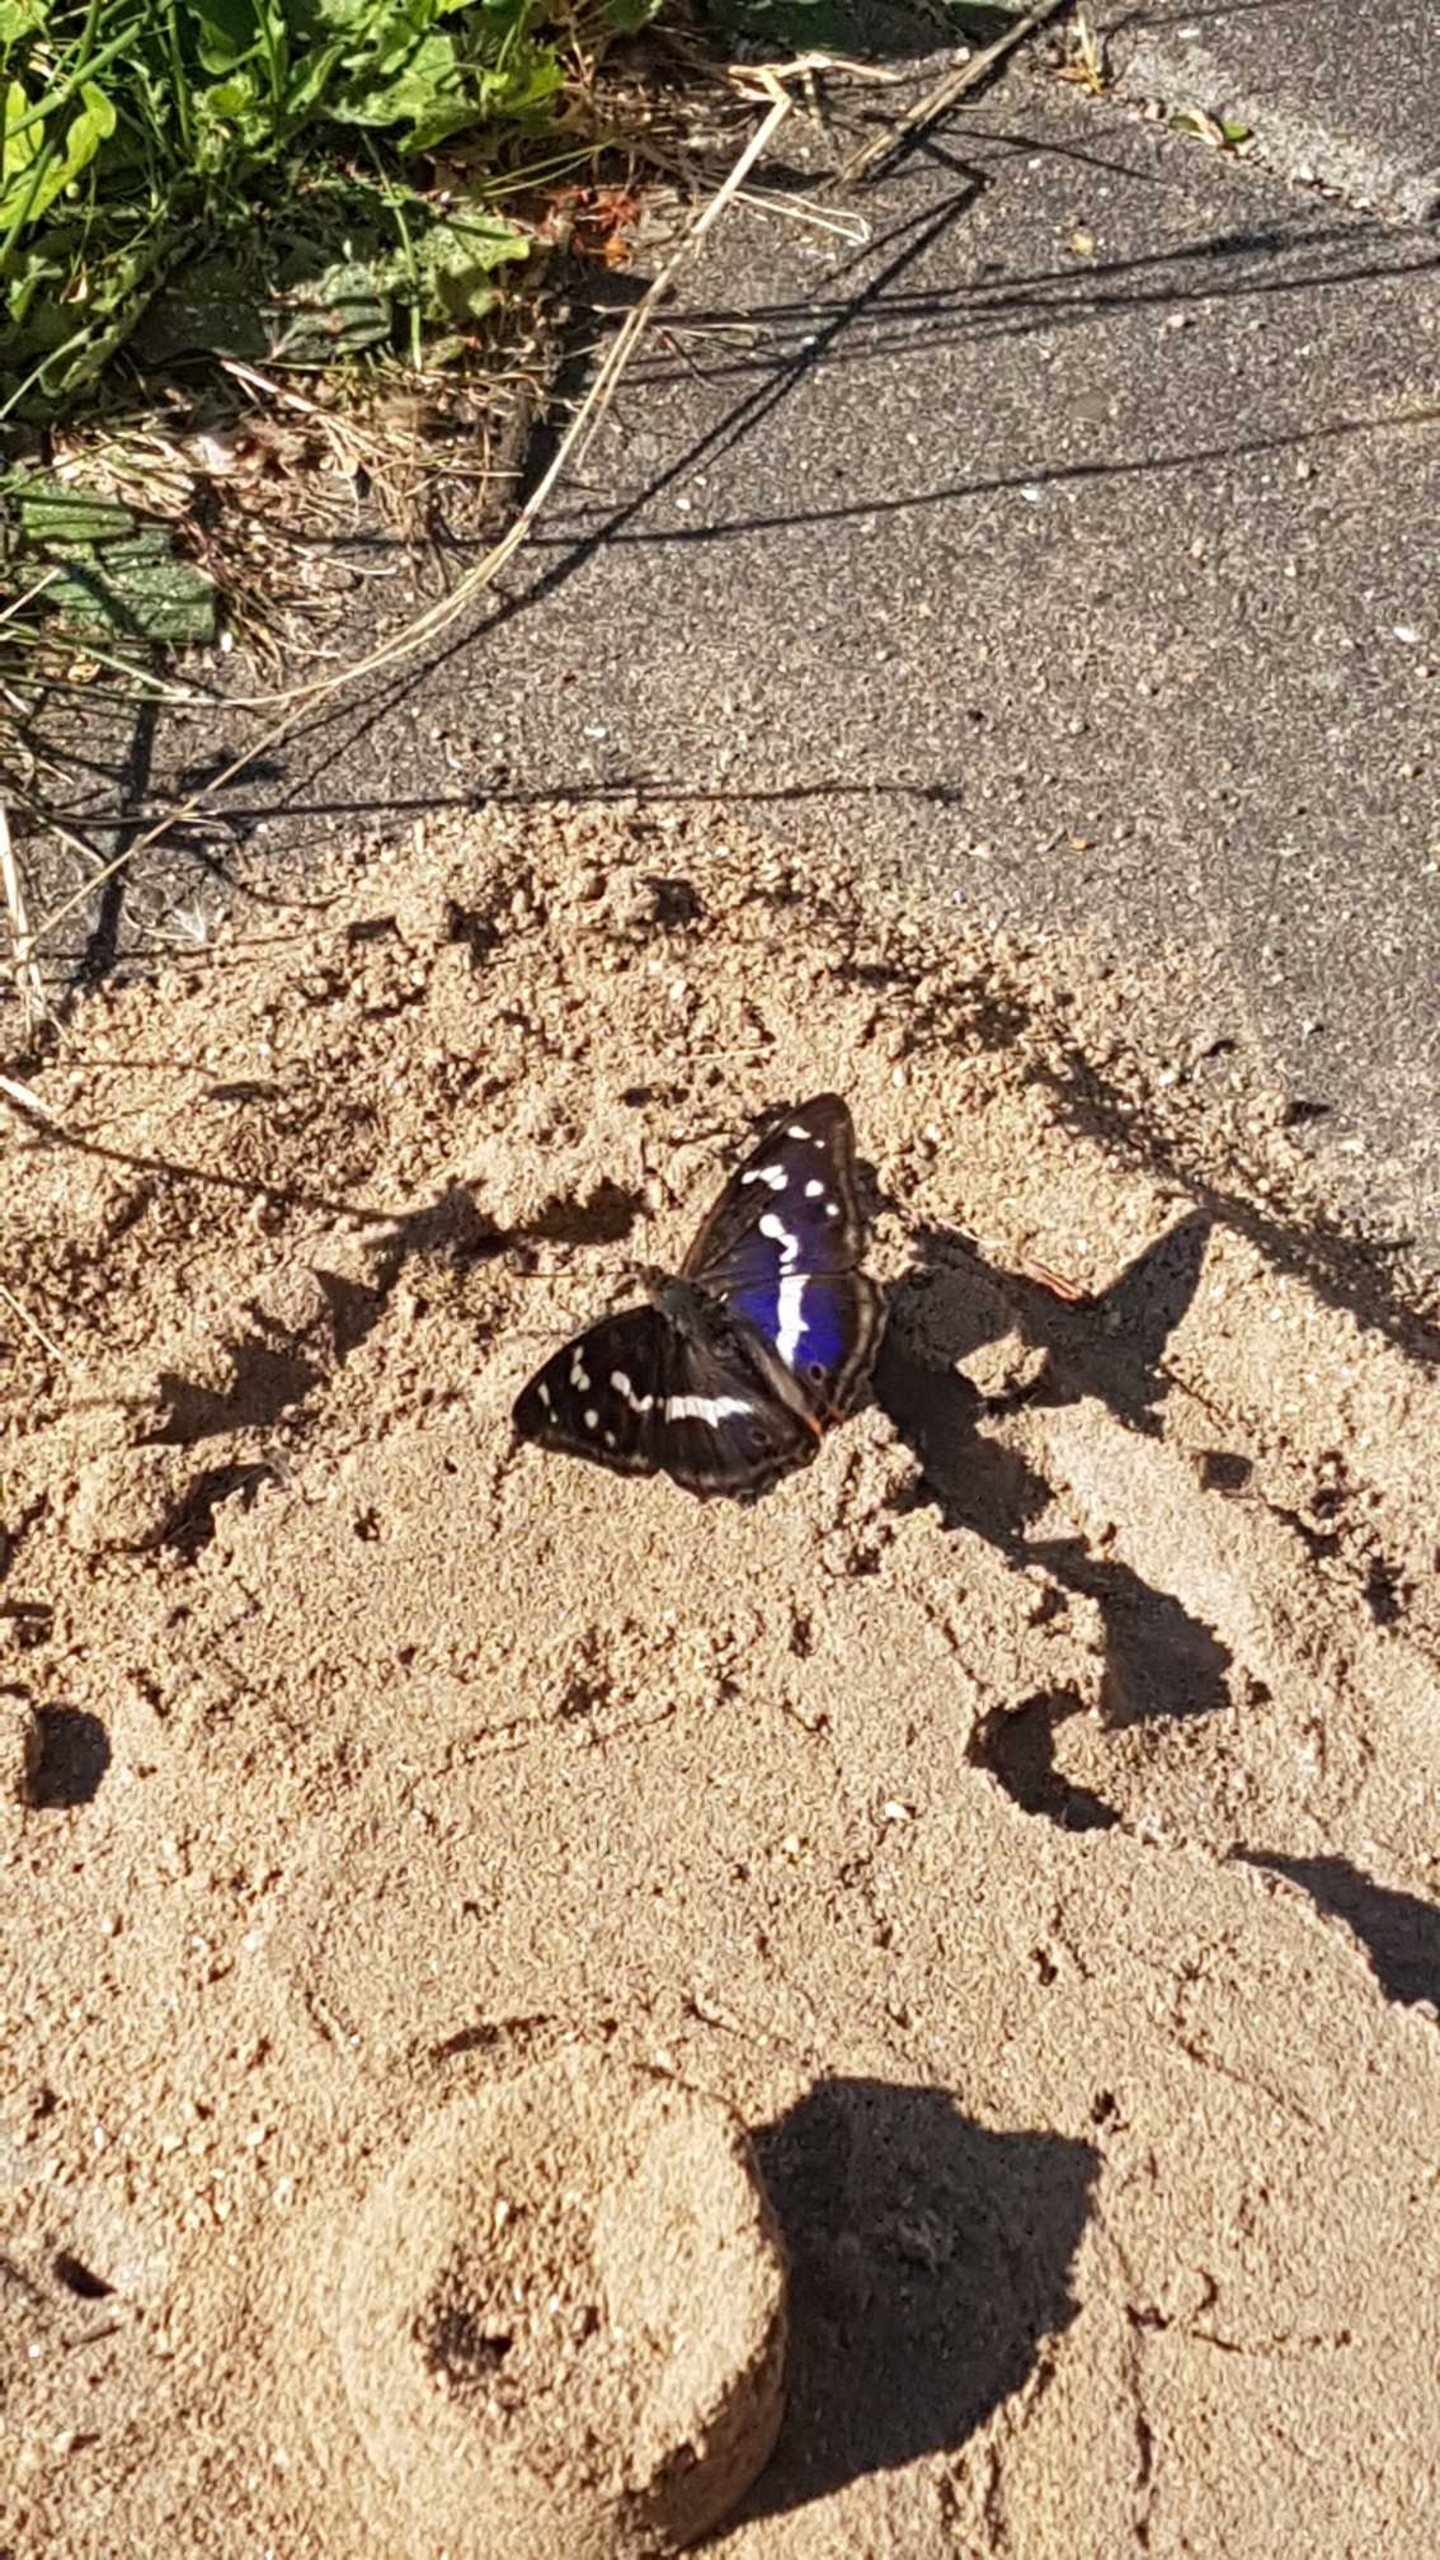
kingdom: Animalia
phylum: Arthropoda
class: Insecta
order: Lepidoptera
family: Nymphalidae
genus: Apatura
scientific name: Apatura iris
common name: Iris
